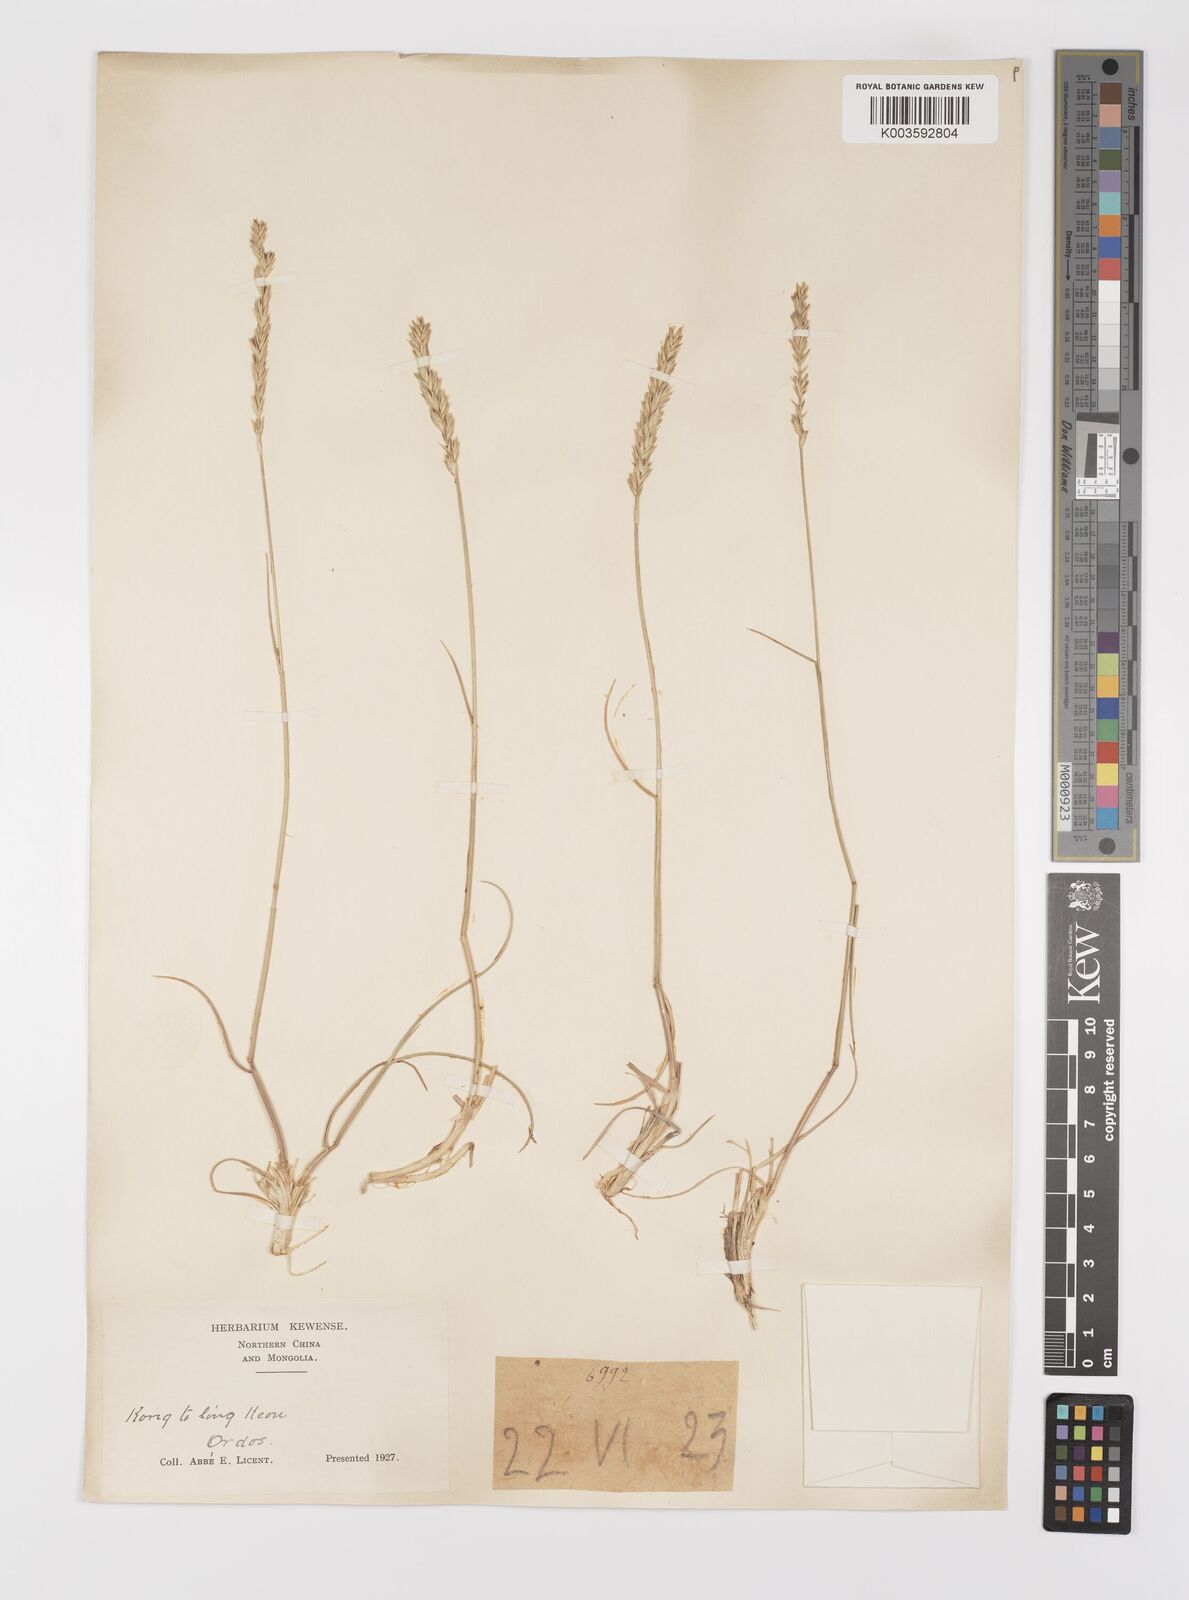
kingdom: Plantae
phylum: Tracheophyta
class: Liliopsida
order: Poales
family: Poaceae
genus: Agropyron
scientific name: Agropyron cristatum
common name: Crested wheatgrass
